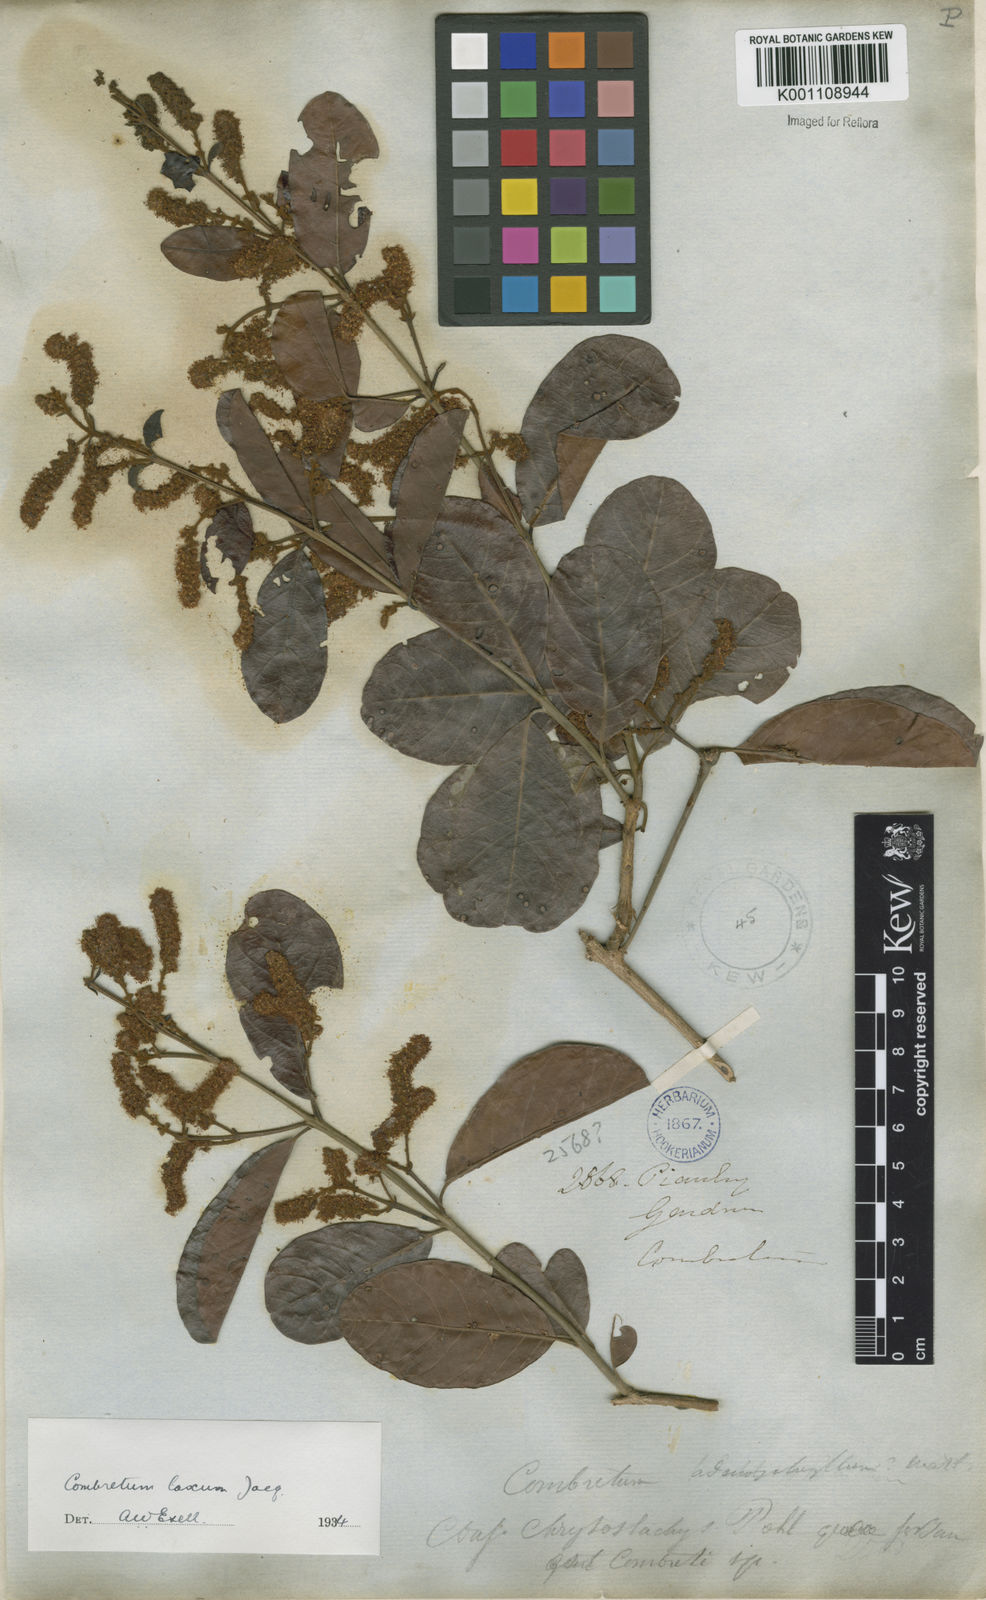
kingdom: Plantae
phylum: Tracheophyta
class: Magnoliopsida
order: Myrtales
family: Combretaceae
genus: Combretum
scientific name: Combretum laxum
